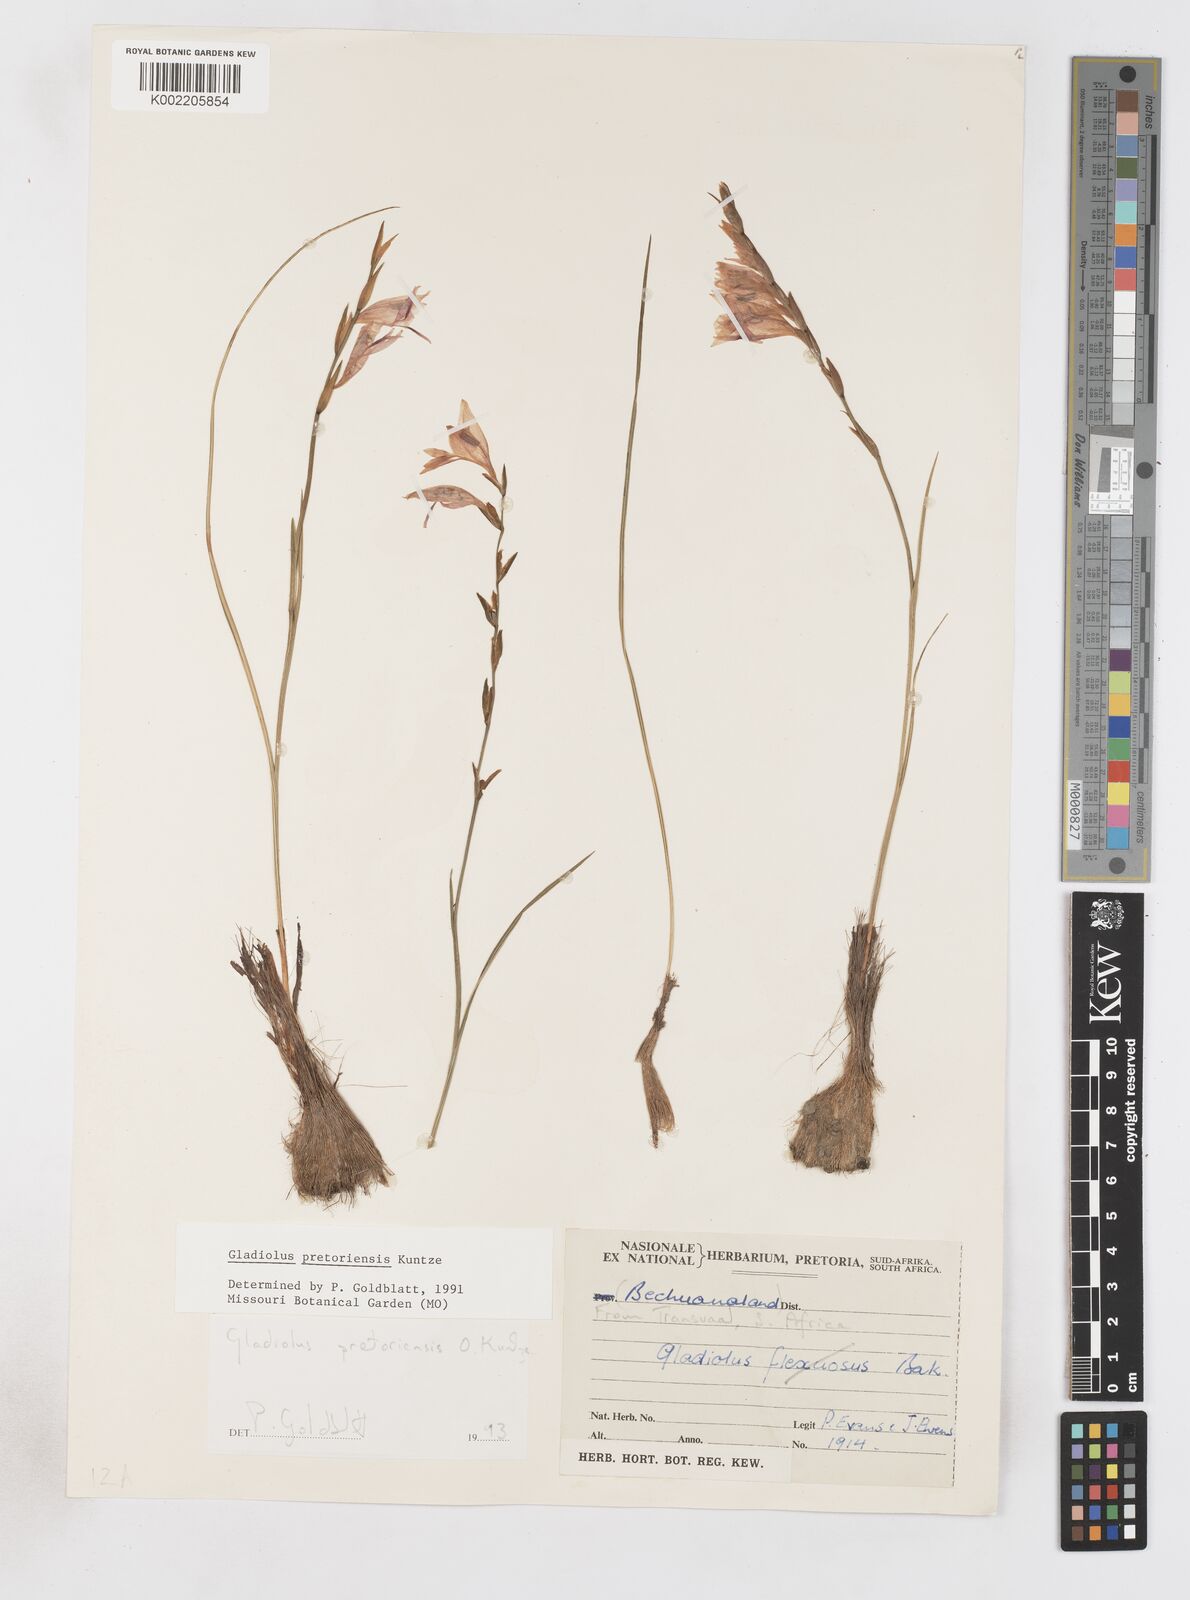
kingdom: Plantae
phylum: Tracheophyta
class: Liliopsida
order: Asparagales
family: Iridaceae
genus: Gladiolus
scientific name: Gladiolus pretoriensis
